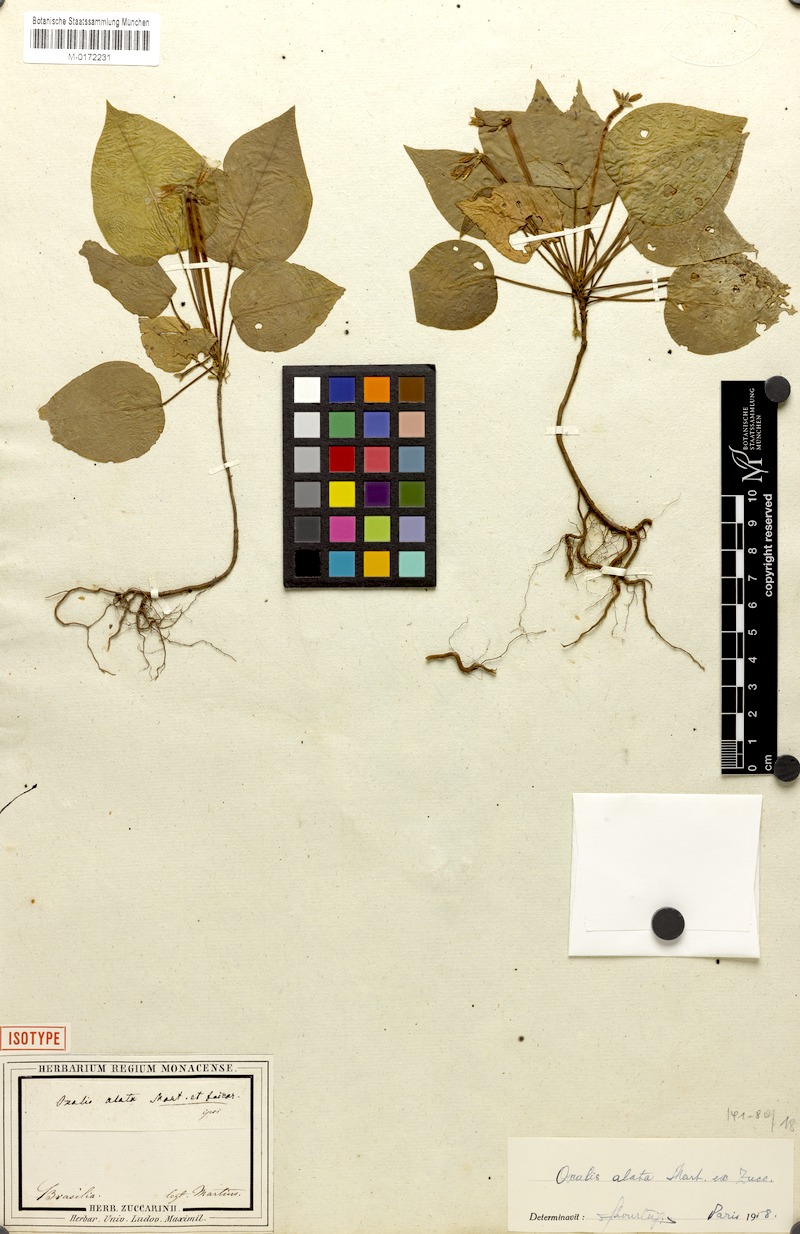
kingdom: Plantae
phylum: Tracheophyta
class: Magnoliopsida
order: Oxalidales
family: Oxalidaceae
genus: Oxalis
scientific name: Oxalis alata
